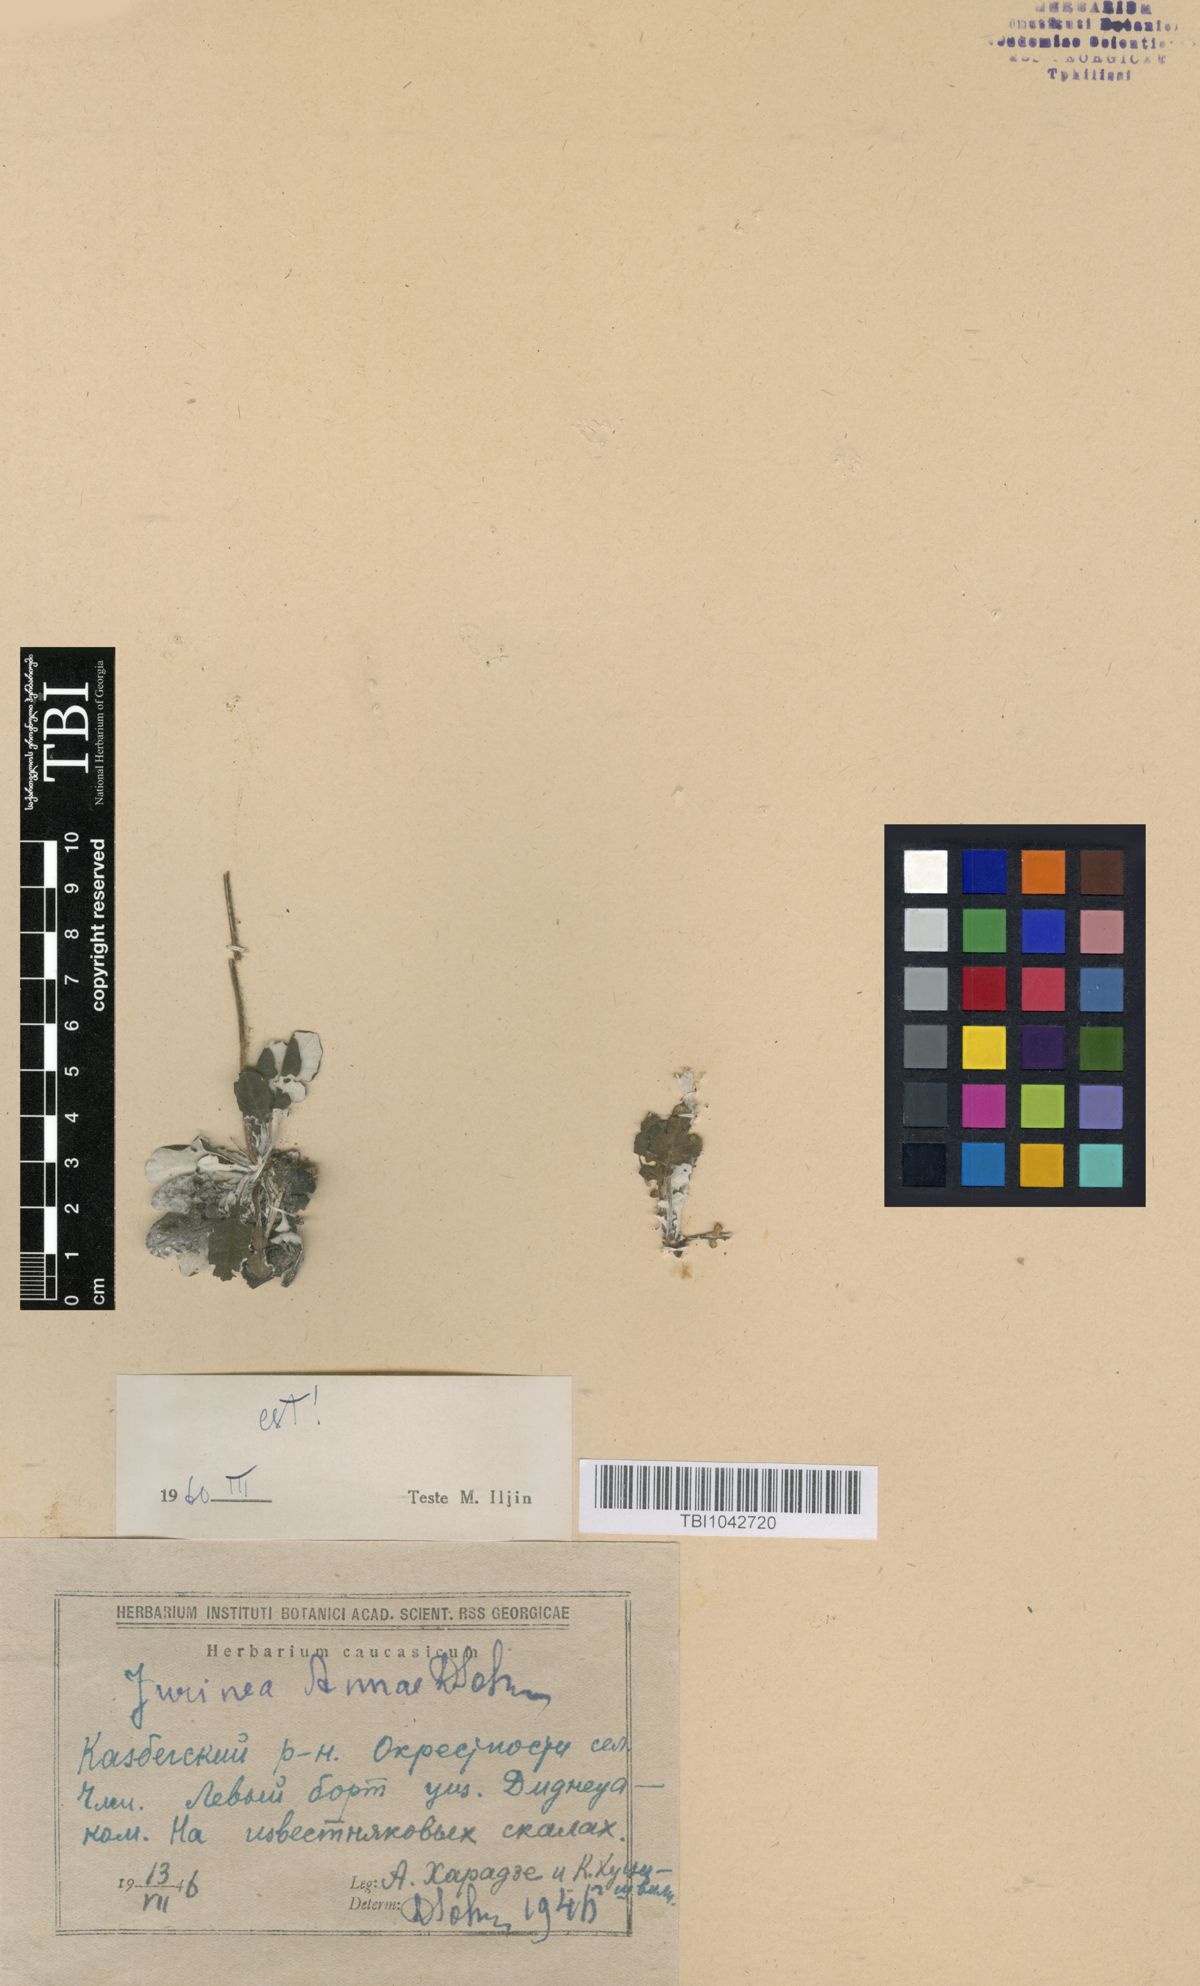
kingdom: Plantae
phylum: Tracheophyta
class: Magnoliopsida
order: Asterales
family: Asteraceae
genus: Jurinea
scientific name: Jurinea alata
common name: Winged jurinea
